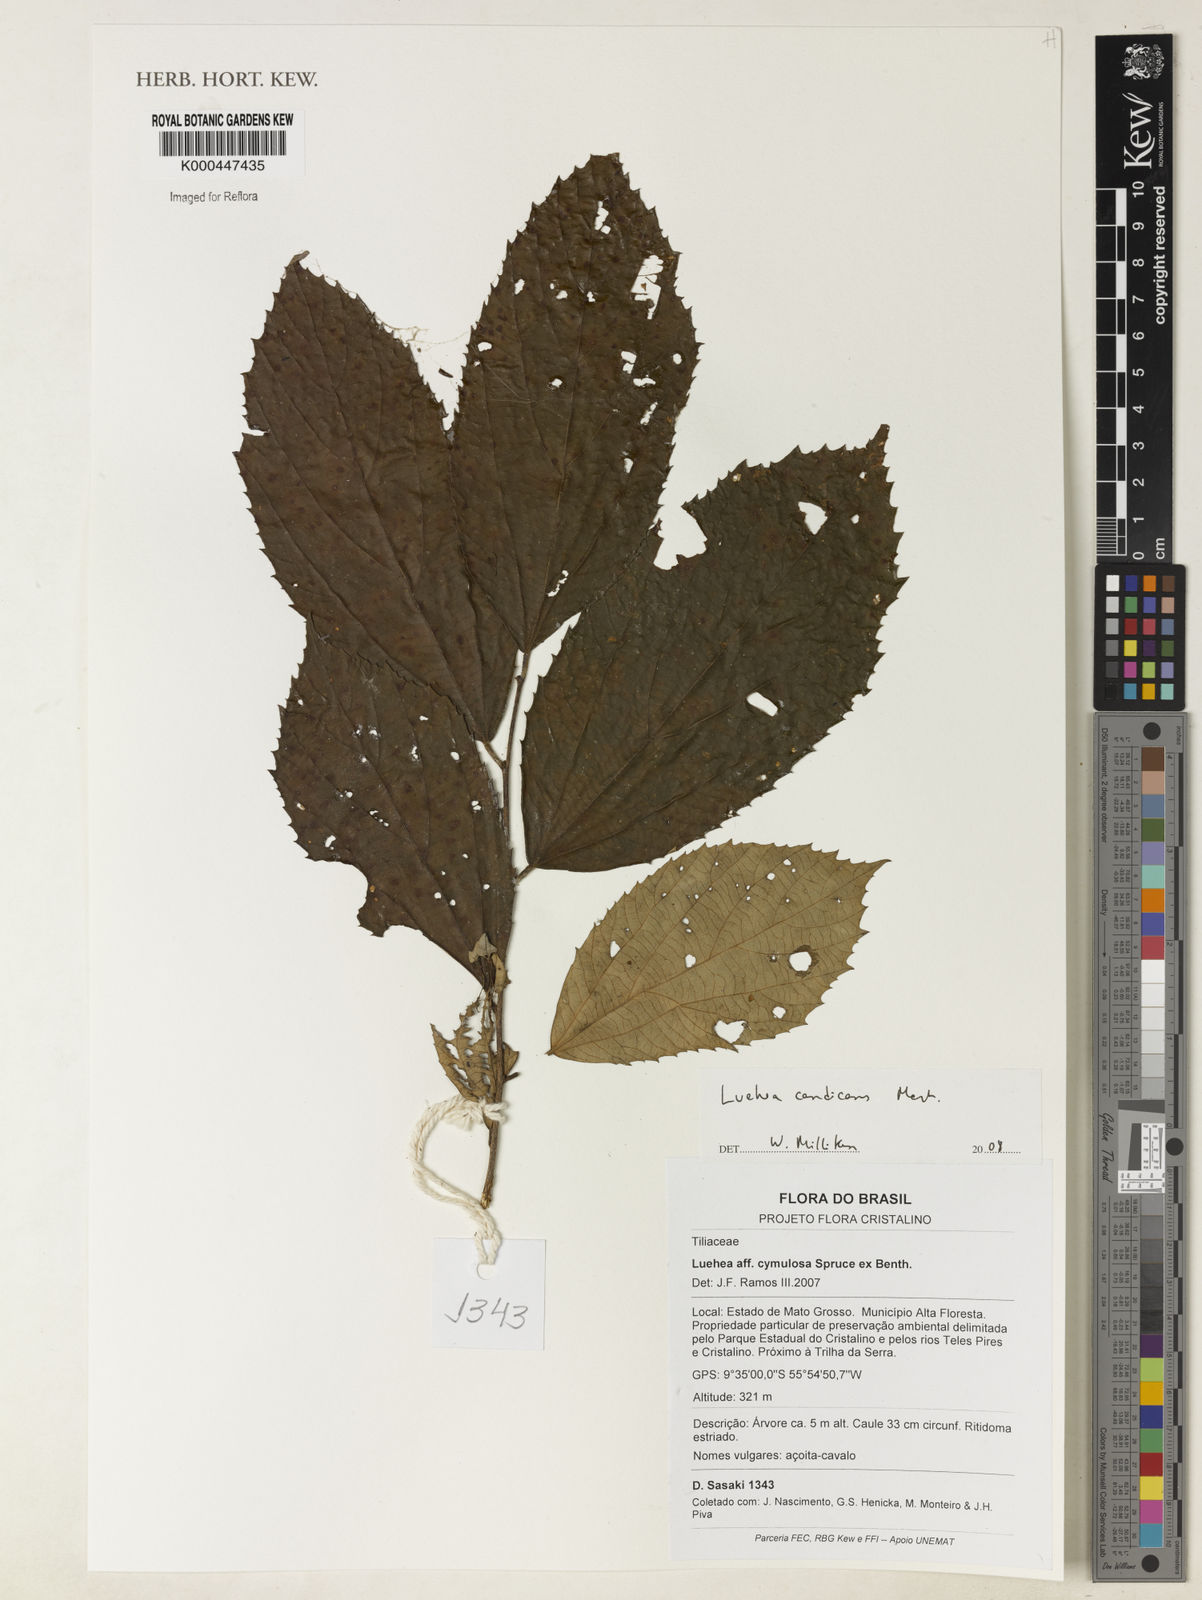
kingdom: Plantae
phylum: Tracheophyta
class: Magnoliopsida
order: Malvales
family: Malvaceae
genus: Luehea
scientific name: Luehea cymulosa
